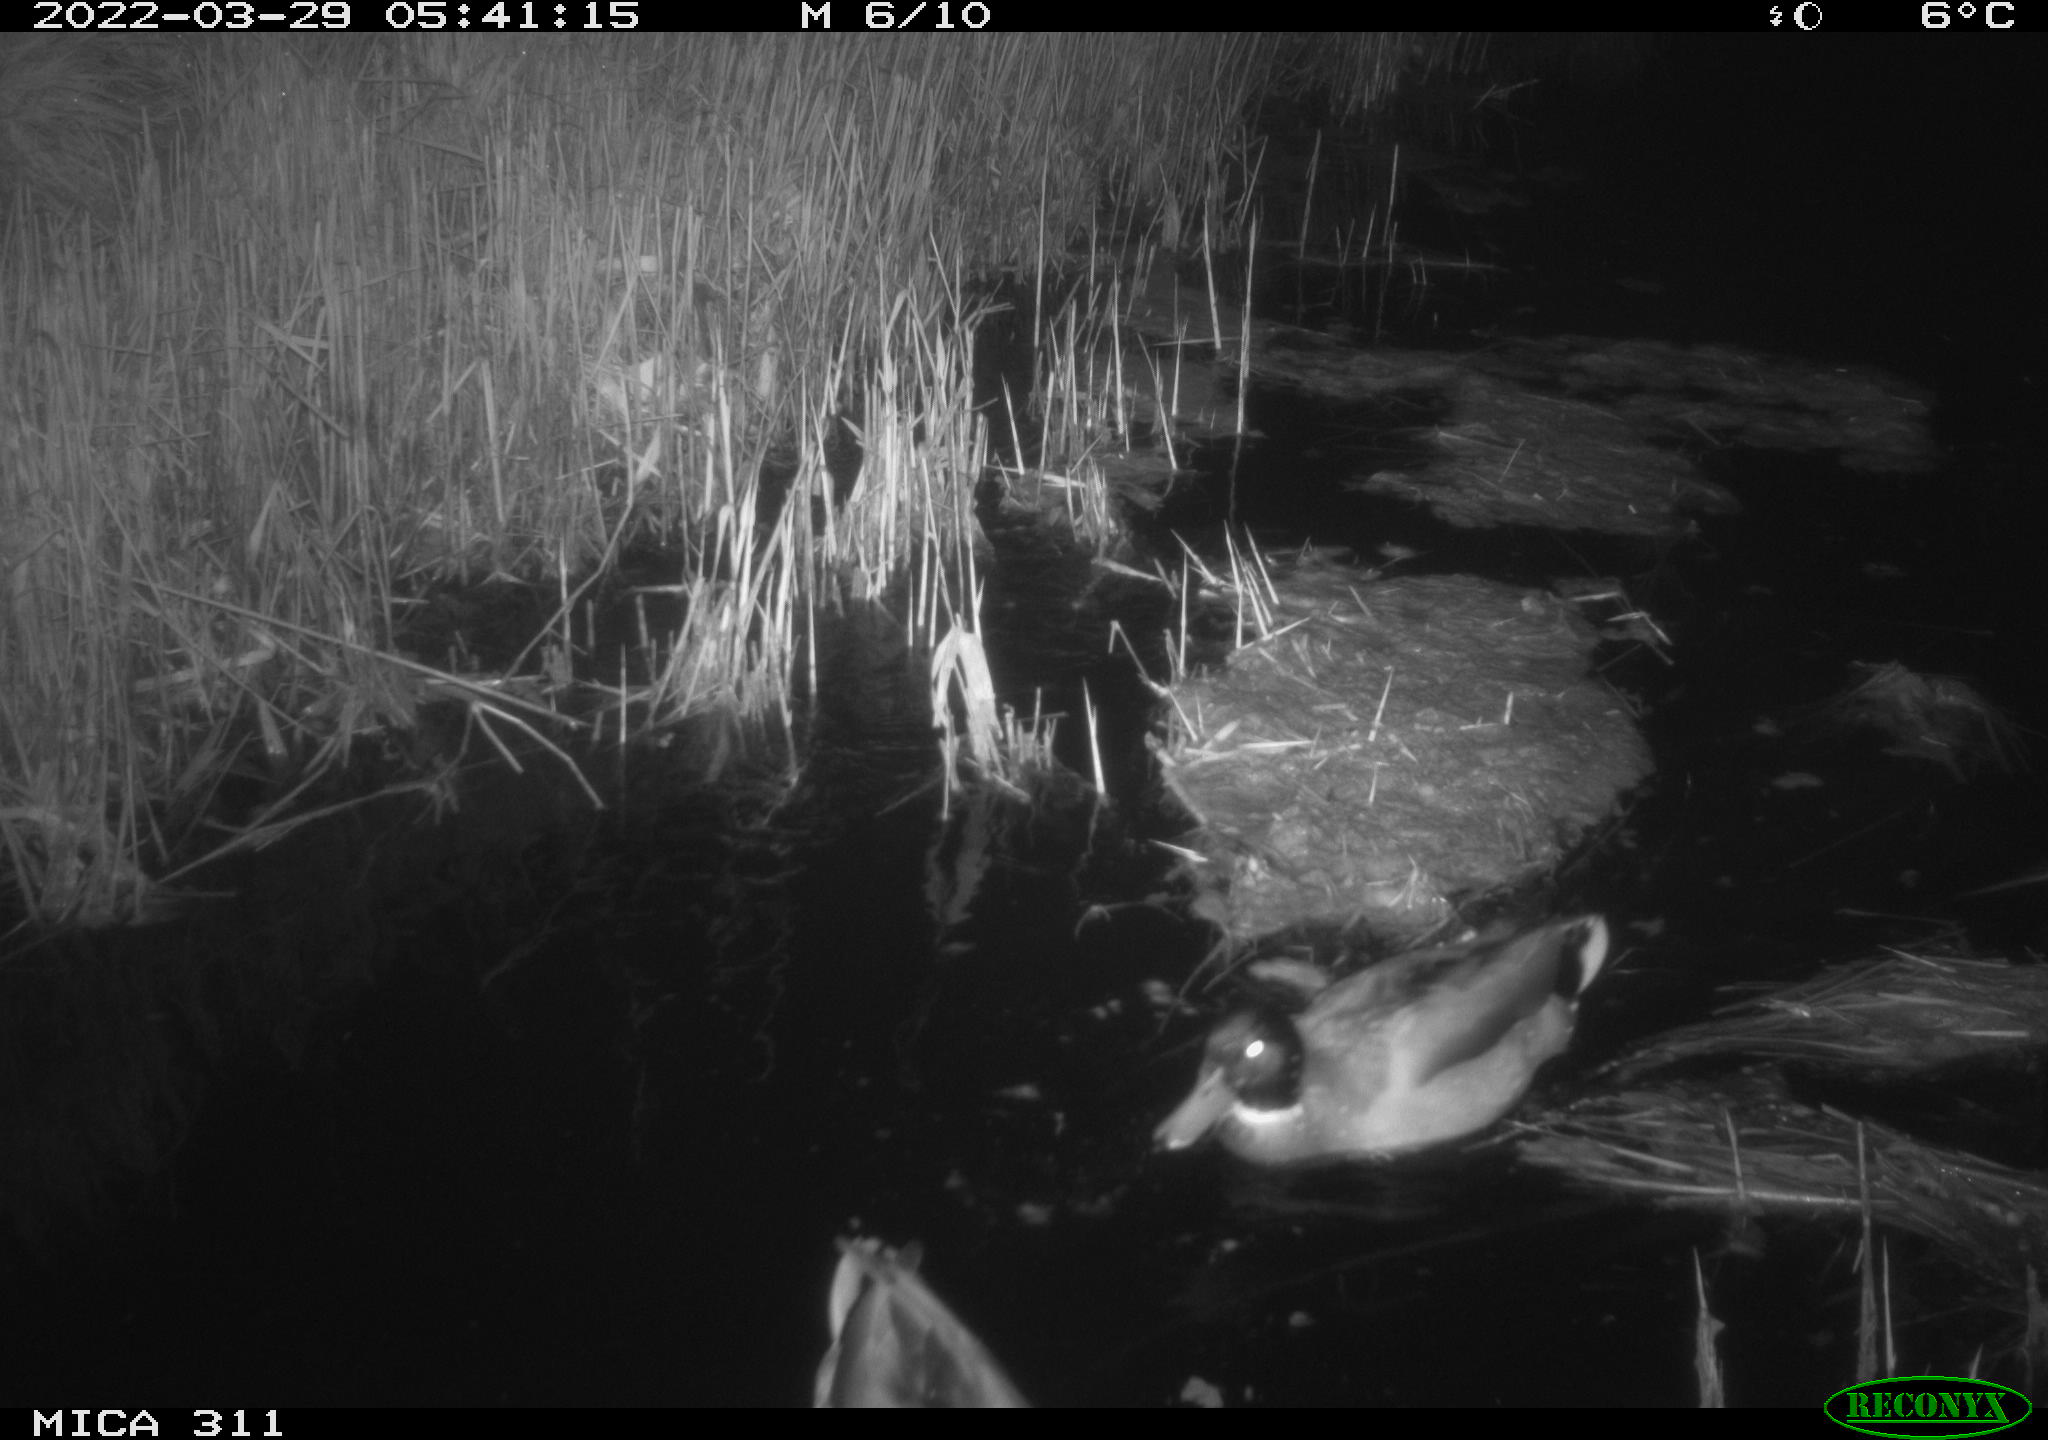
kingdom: Animalia
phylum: Chordata
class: Aves
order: Anseriformes
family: Anatidae
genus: Anas
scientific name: Anas platyrhynchos
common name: Mallard
